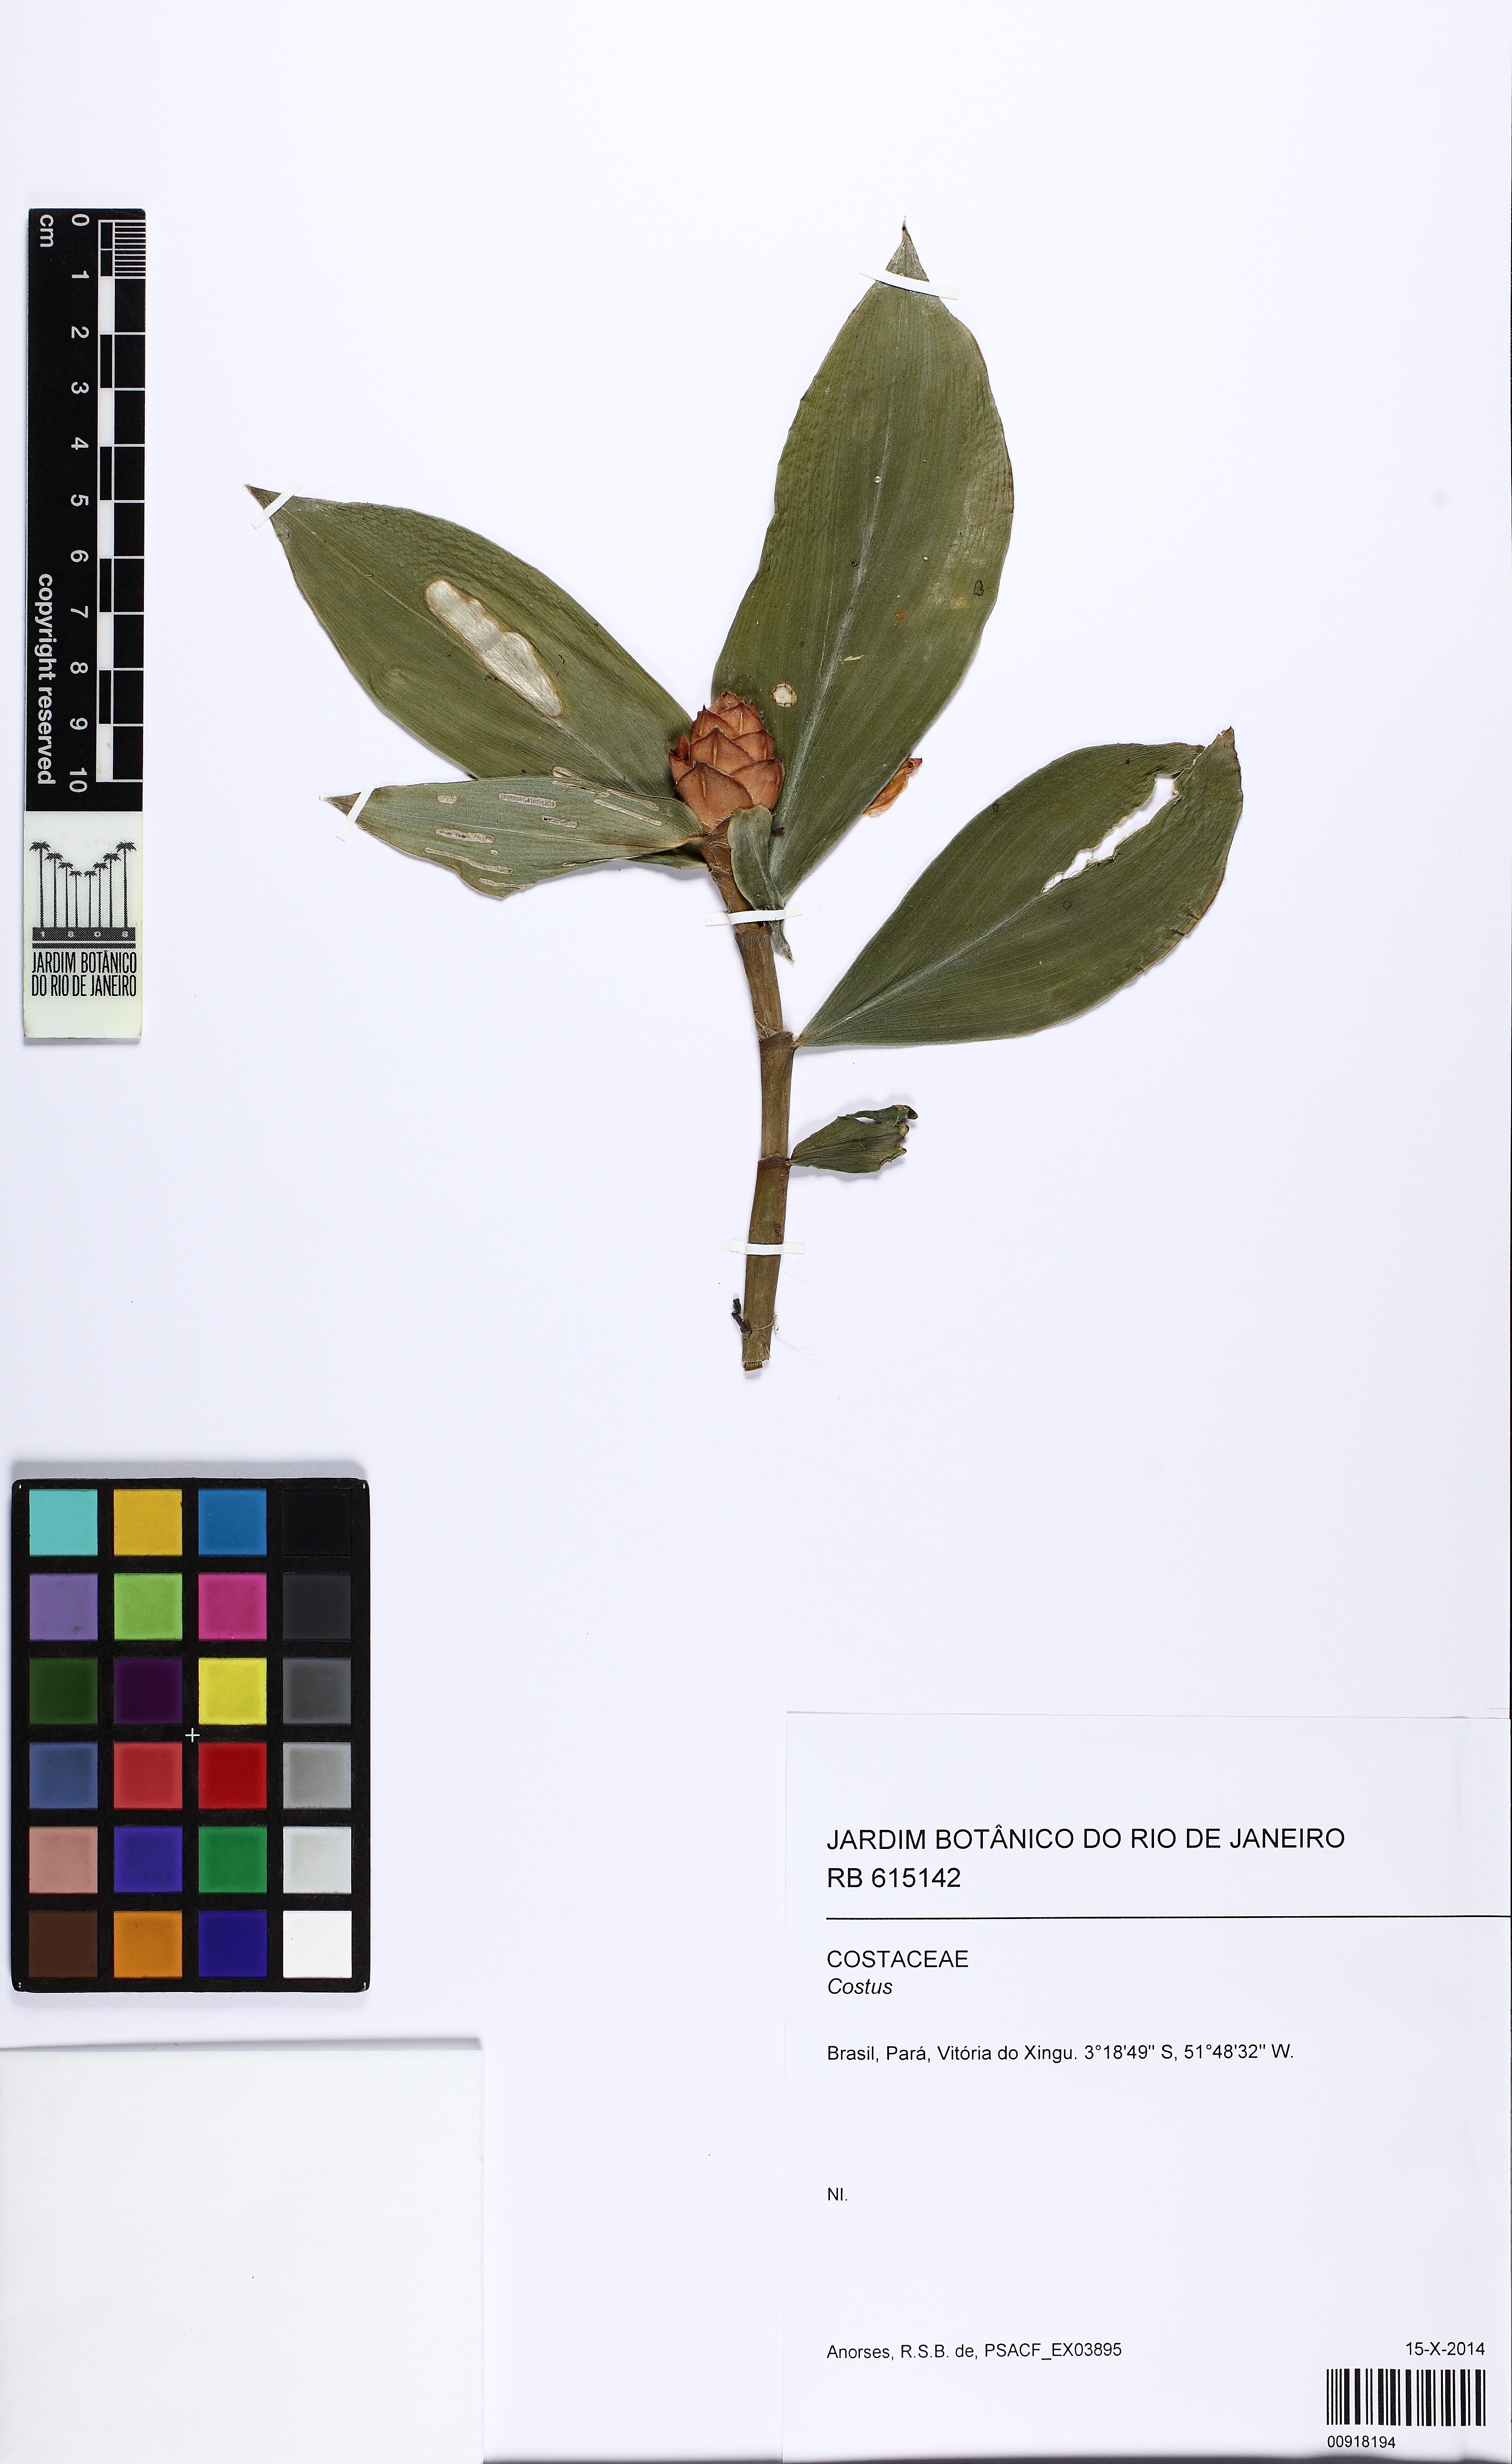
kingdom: Plantae
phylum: Tracheophyta
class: Liliopsida
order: Zingiberales
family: Costaceae
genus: Costus
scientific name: Costus scaber
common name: Spiral head ginger
